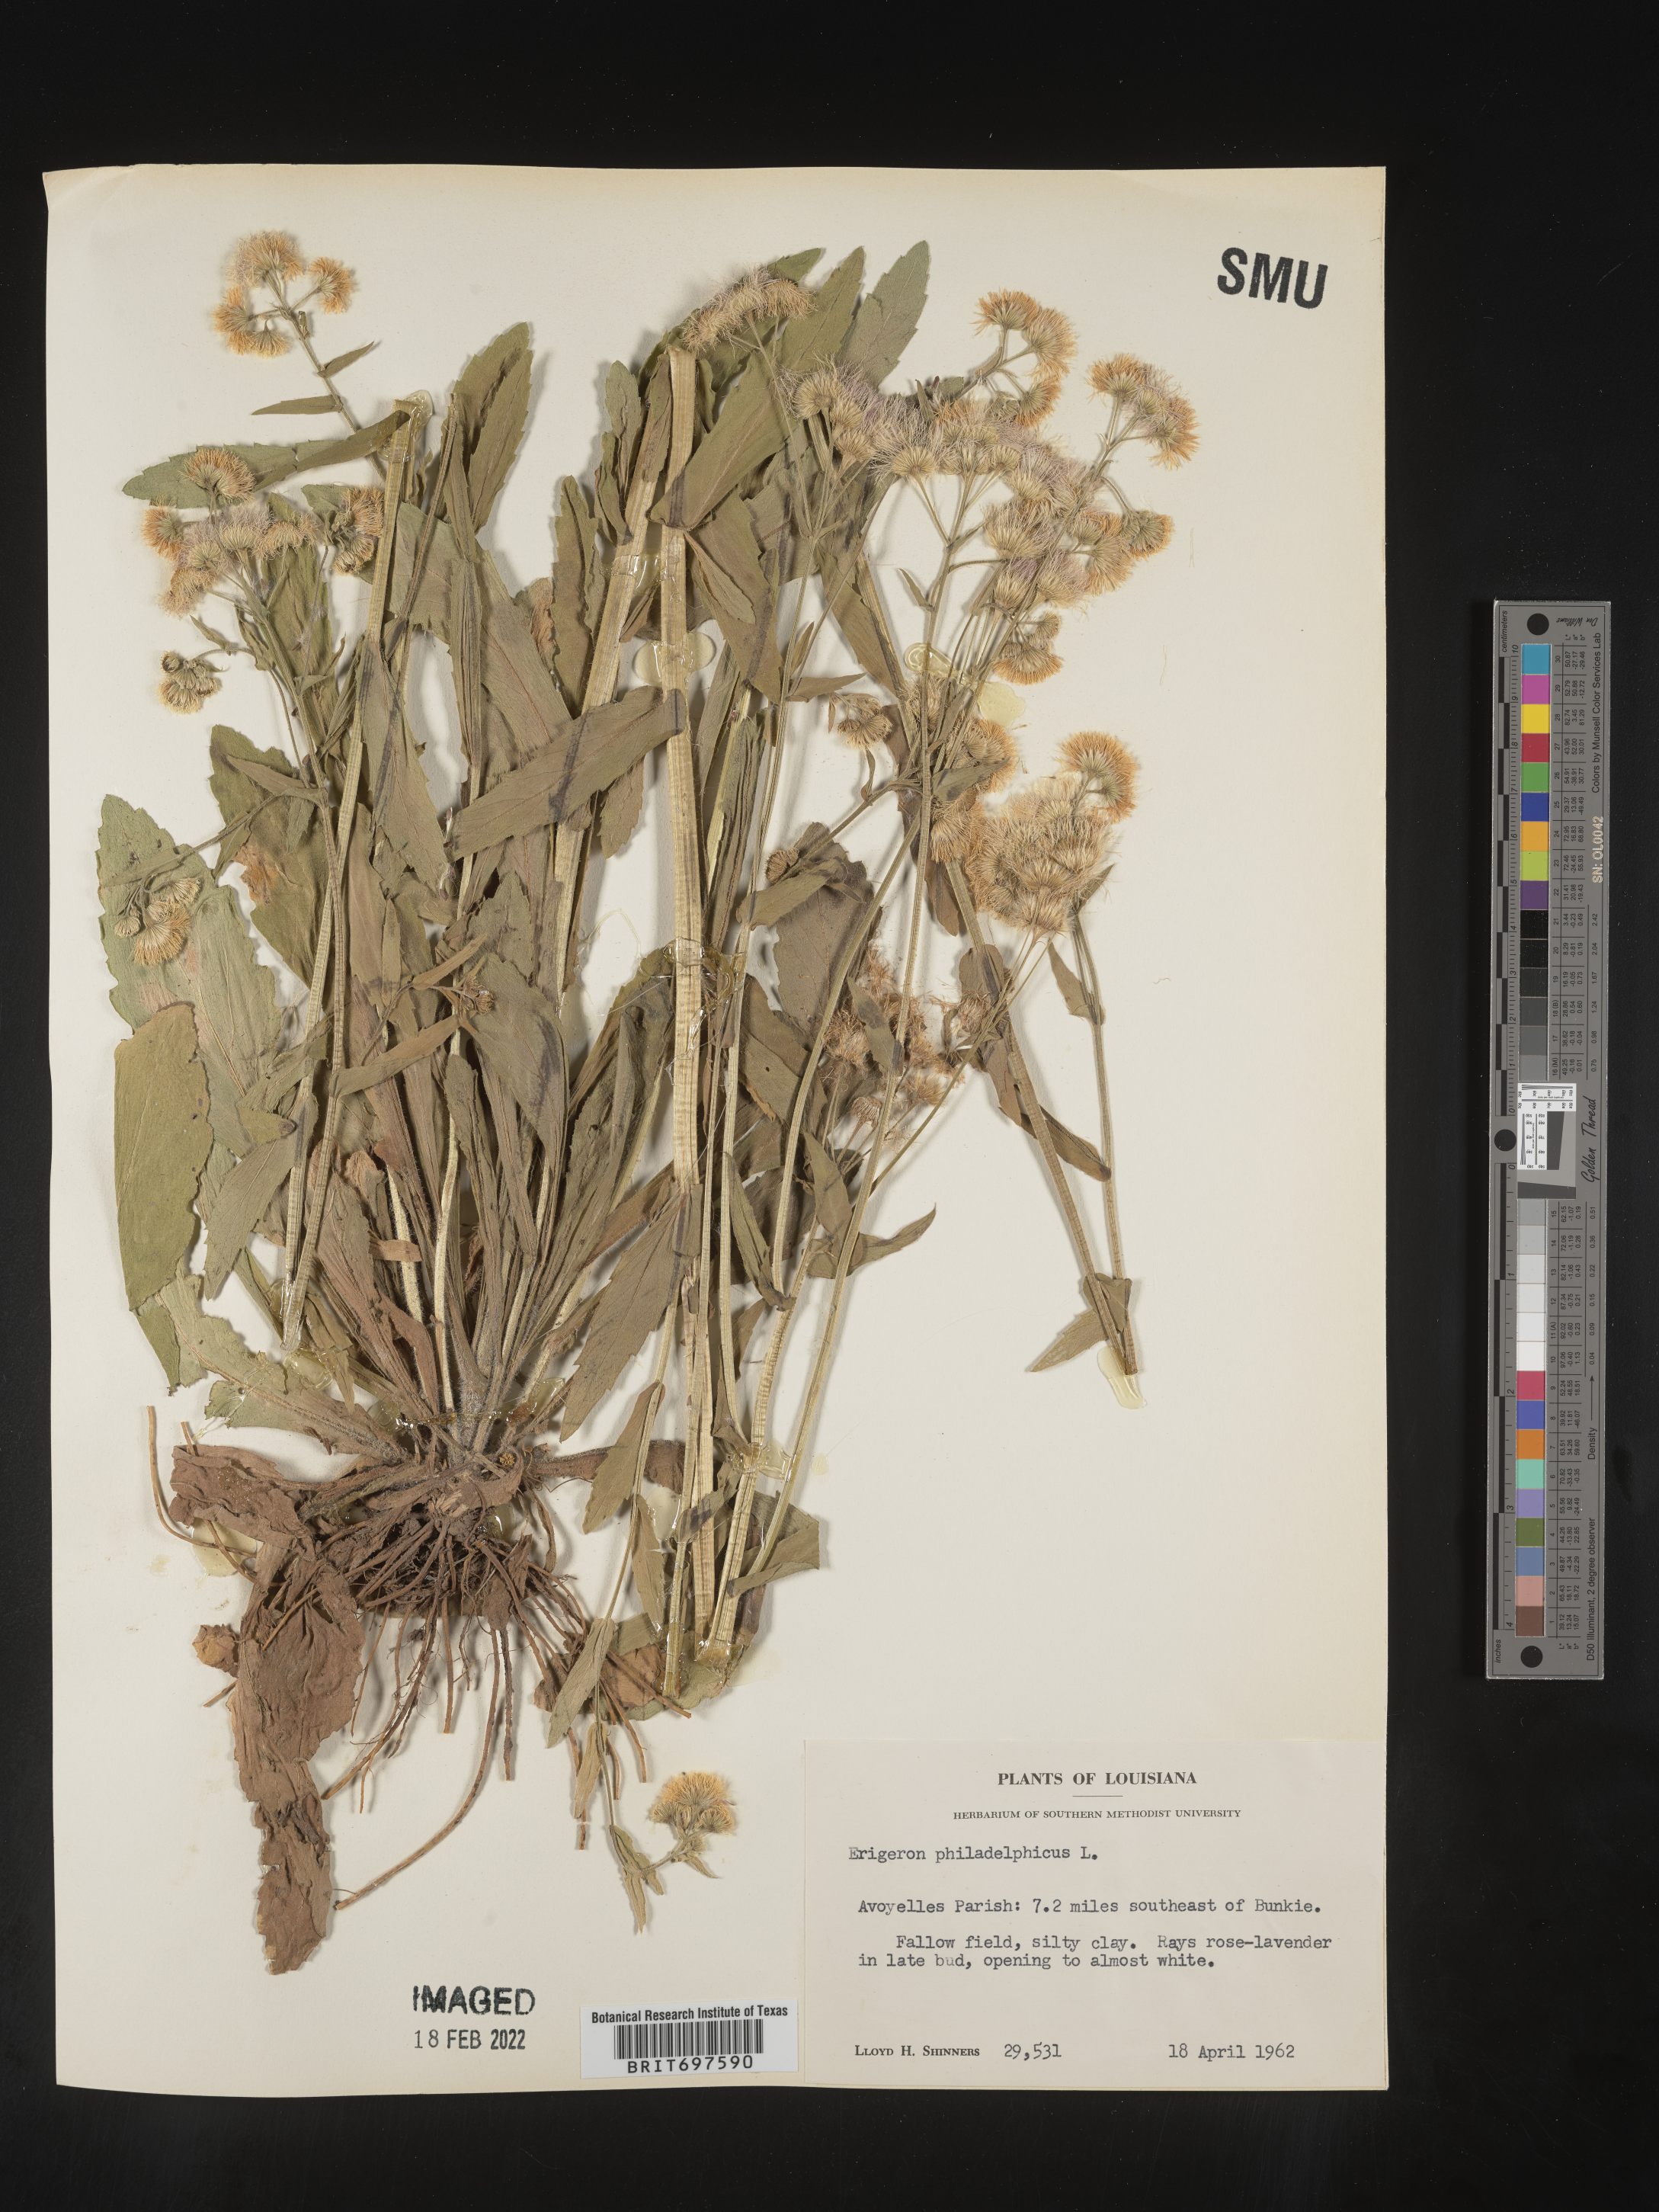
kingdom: Plantae
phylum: Tracheophyta
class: Magnoliopsida
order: Asterales
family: Asteraceae
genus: Erigeron
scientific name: Erigeron philadelphicus
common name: Robin's-plantain
